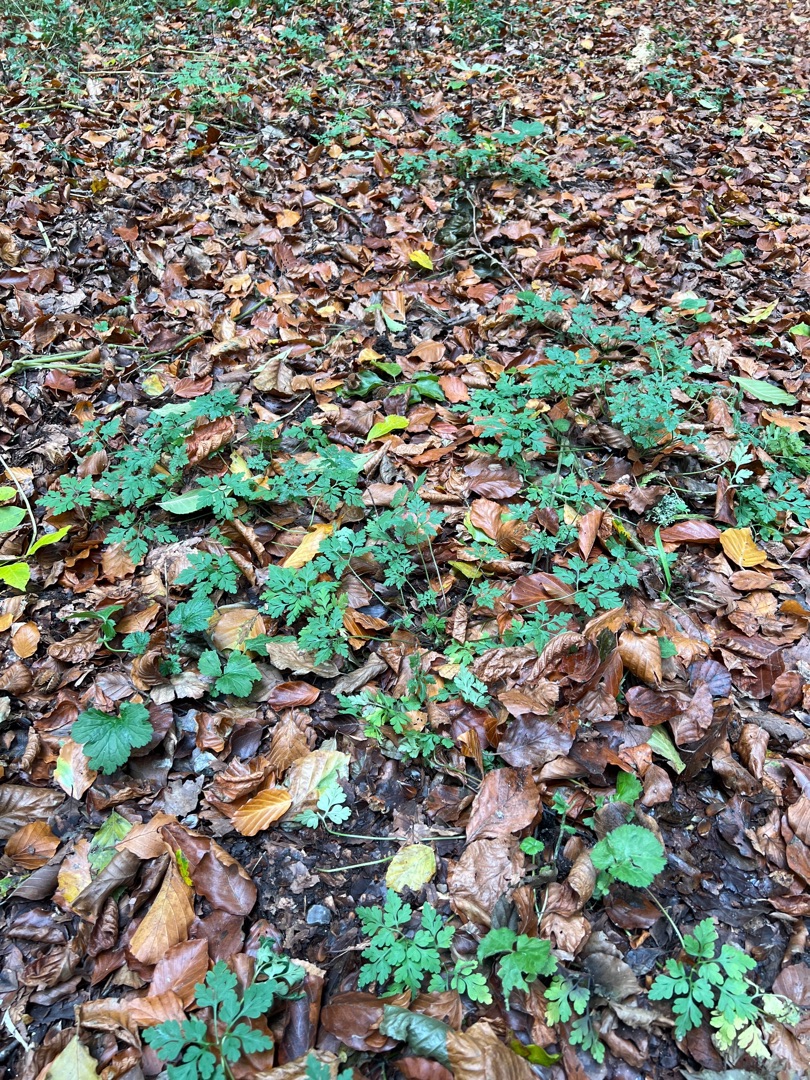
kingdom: Plantae
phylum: Tracheophyta
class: Magnoliopsida
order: Geraniales
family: Geraniaceae
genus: Geranium
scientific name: Geranium robertianum
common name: Stinkende storkenæb
